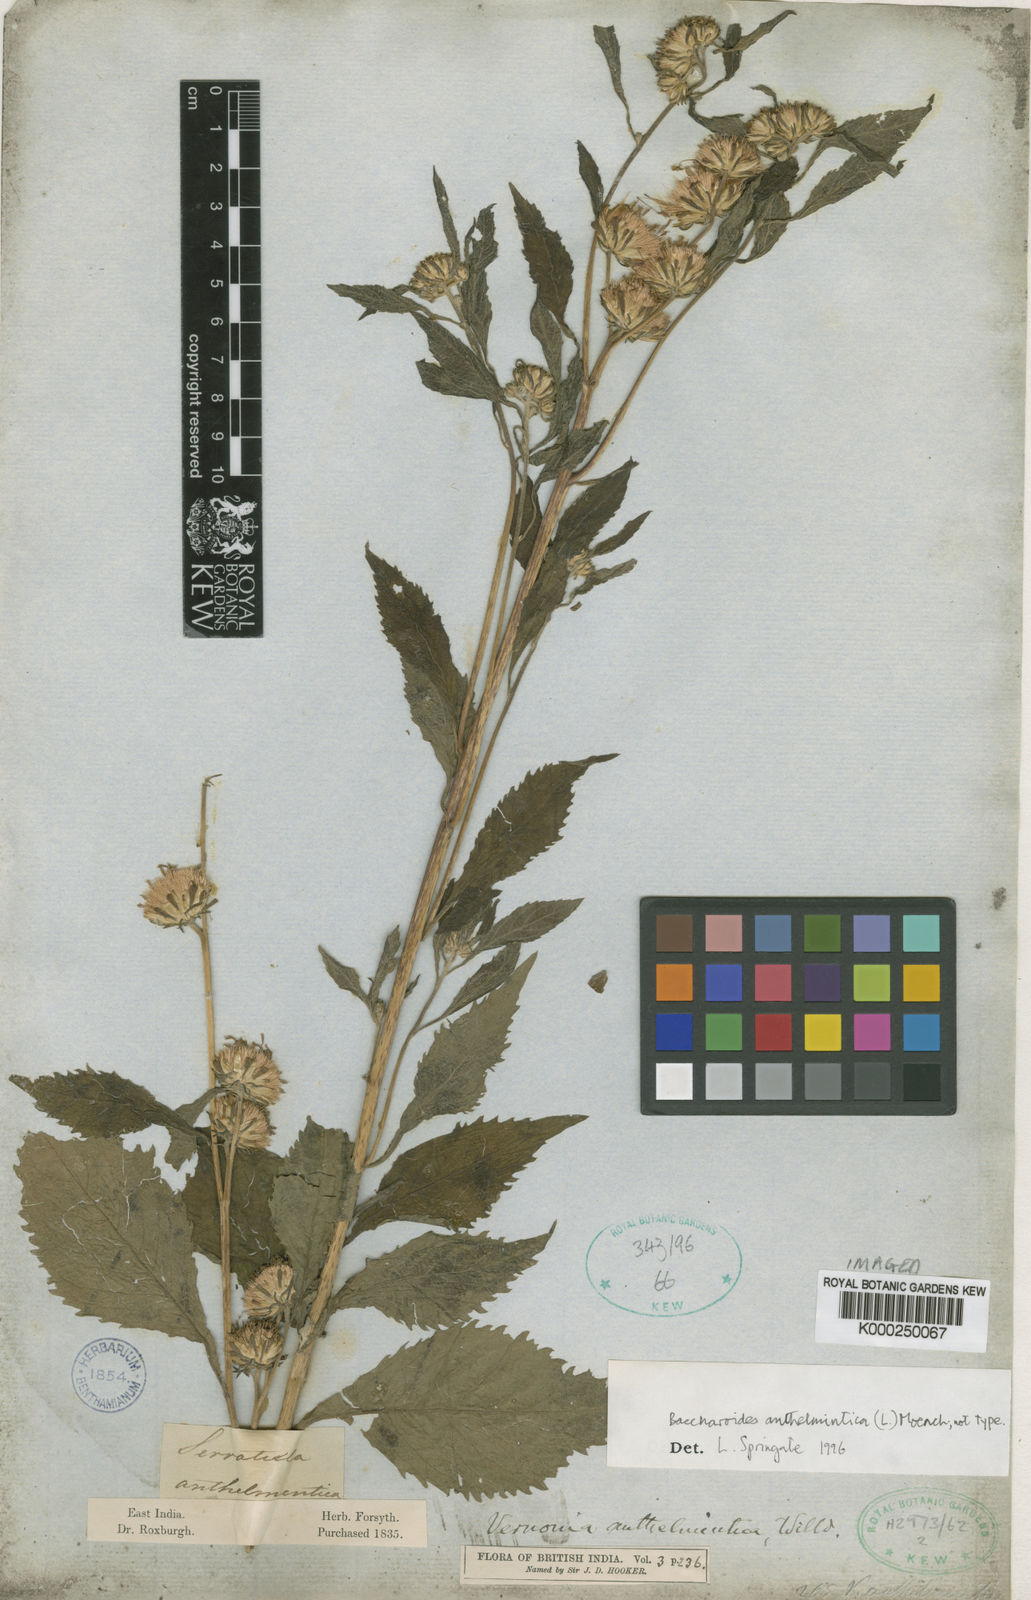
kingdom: Plantae
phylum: Tracheophyta
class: Magnoliopsida
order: Asterales
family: Asteraceae
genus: Baccharoides
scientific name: Baccharoides anthelmintica
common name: Kinka-oil
